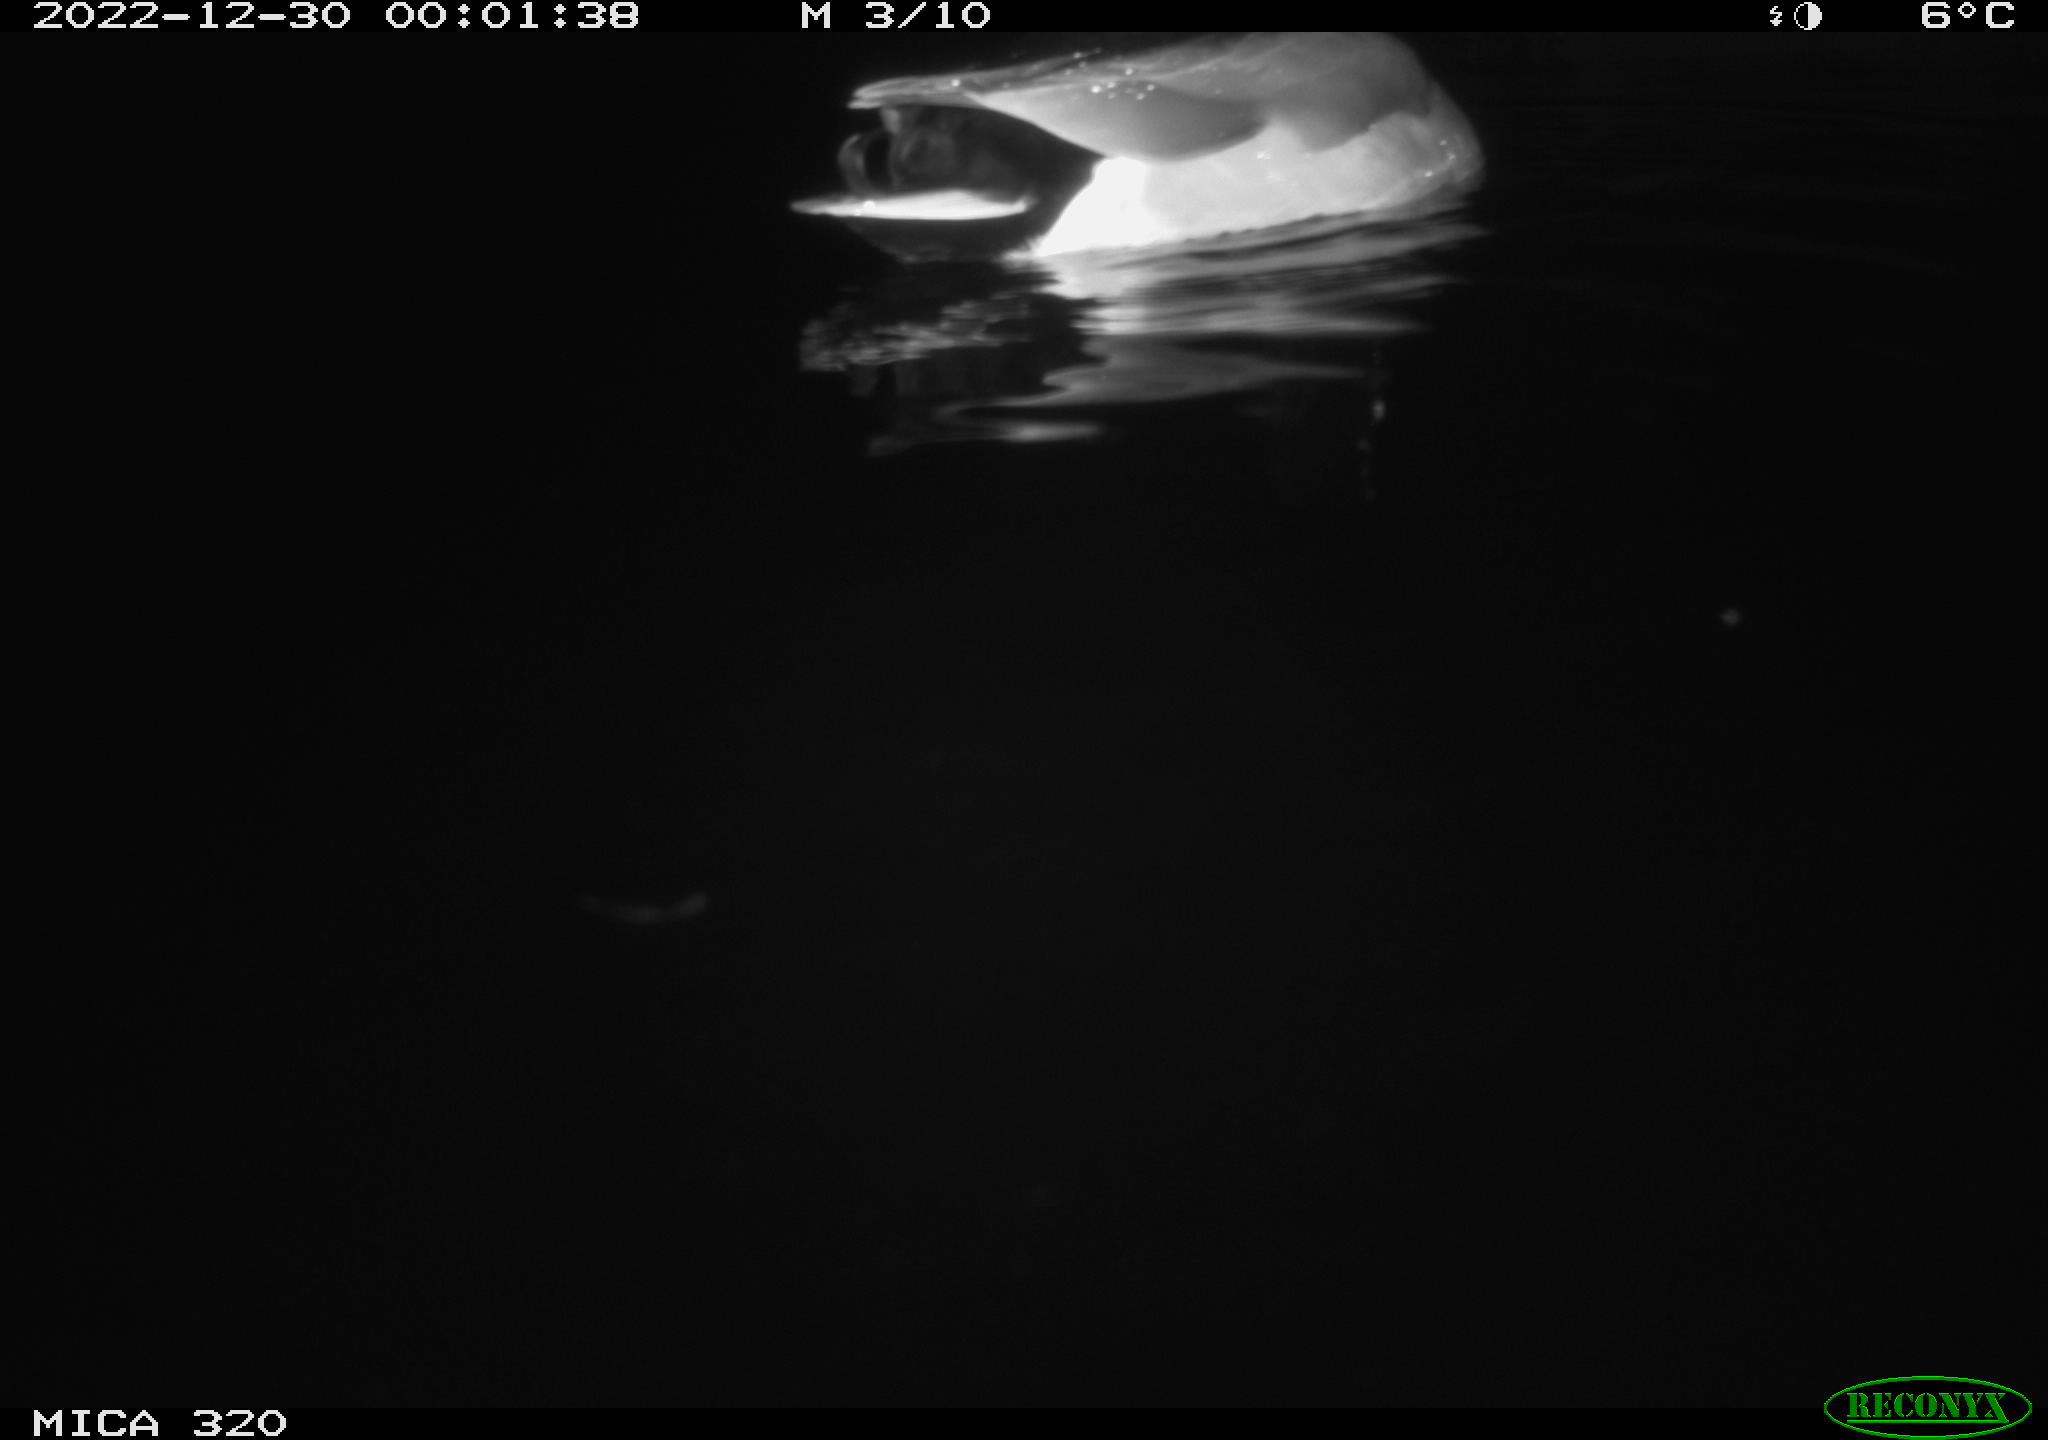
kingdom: Animalia
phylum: Chordata
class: Aves
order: Anseriformes
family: Anatidae
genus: Anas
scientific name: Anas
